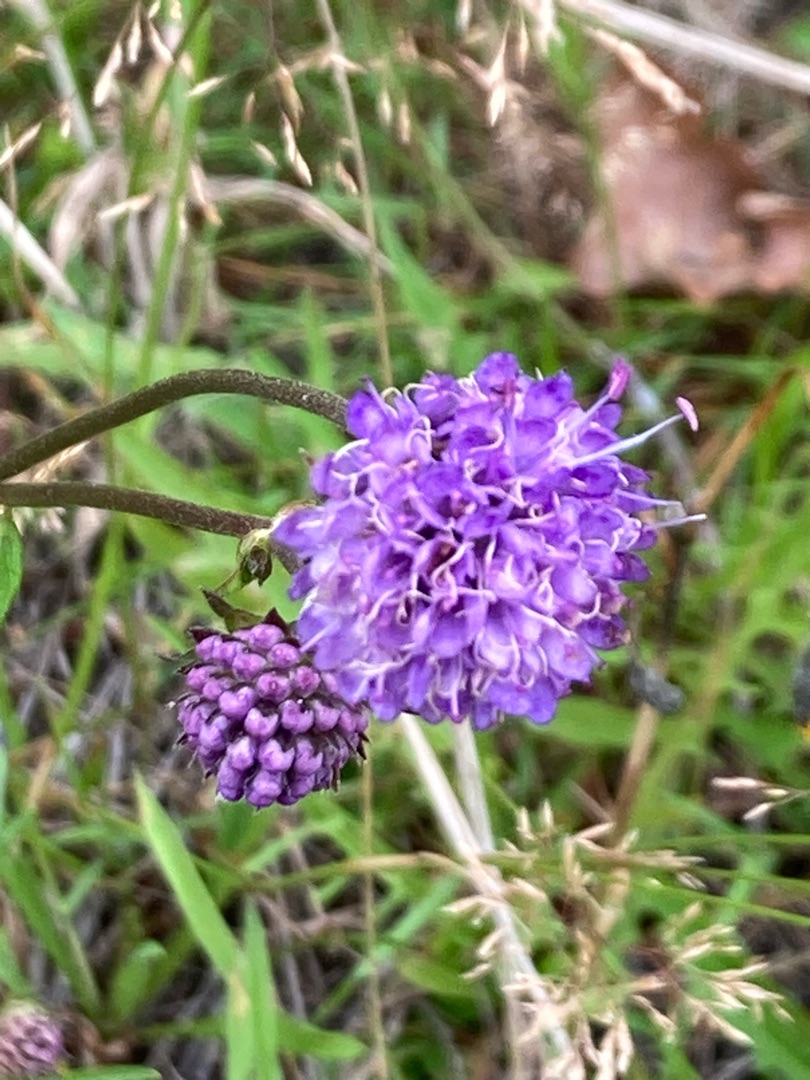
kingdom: Plantae
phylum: Tracheophyta
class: Magnoliopsida
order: Dipsacales
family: Caprifoliaceae
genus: Succisa
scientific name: Succisa pratensis
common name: Djævelsbid
